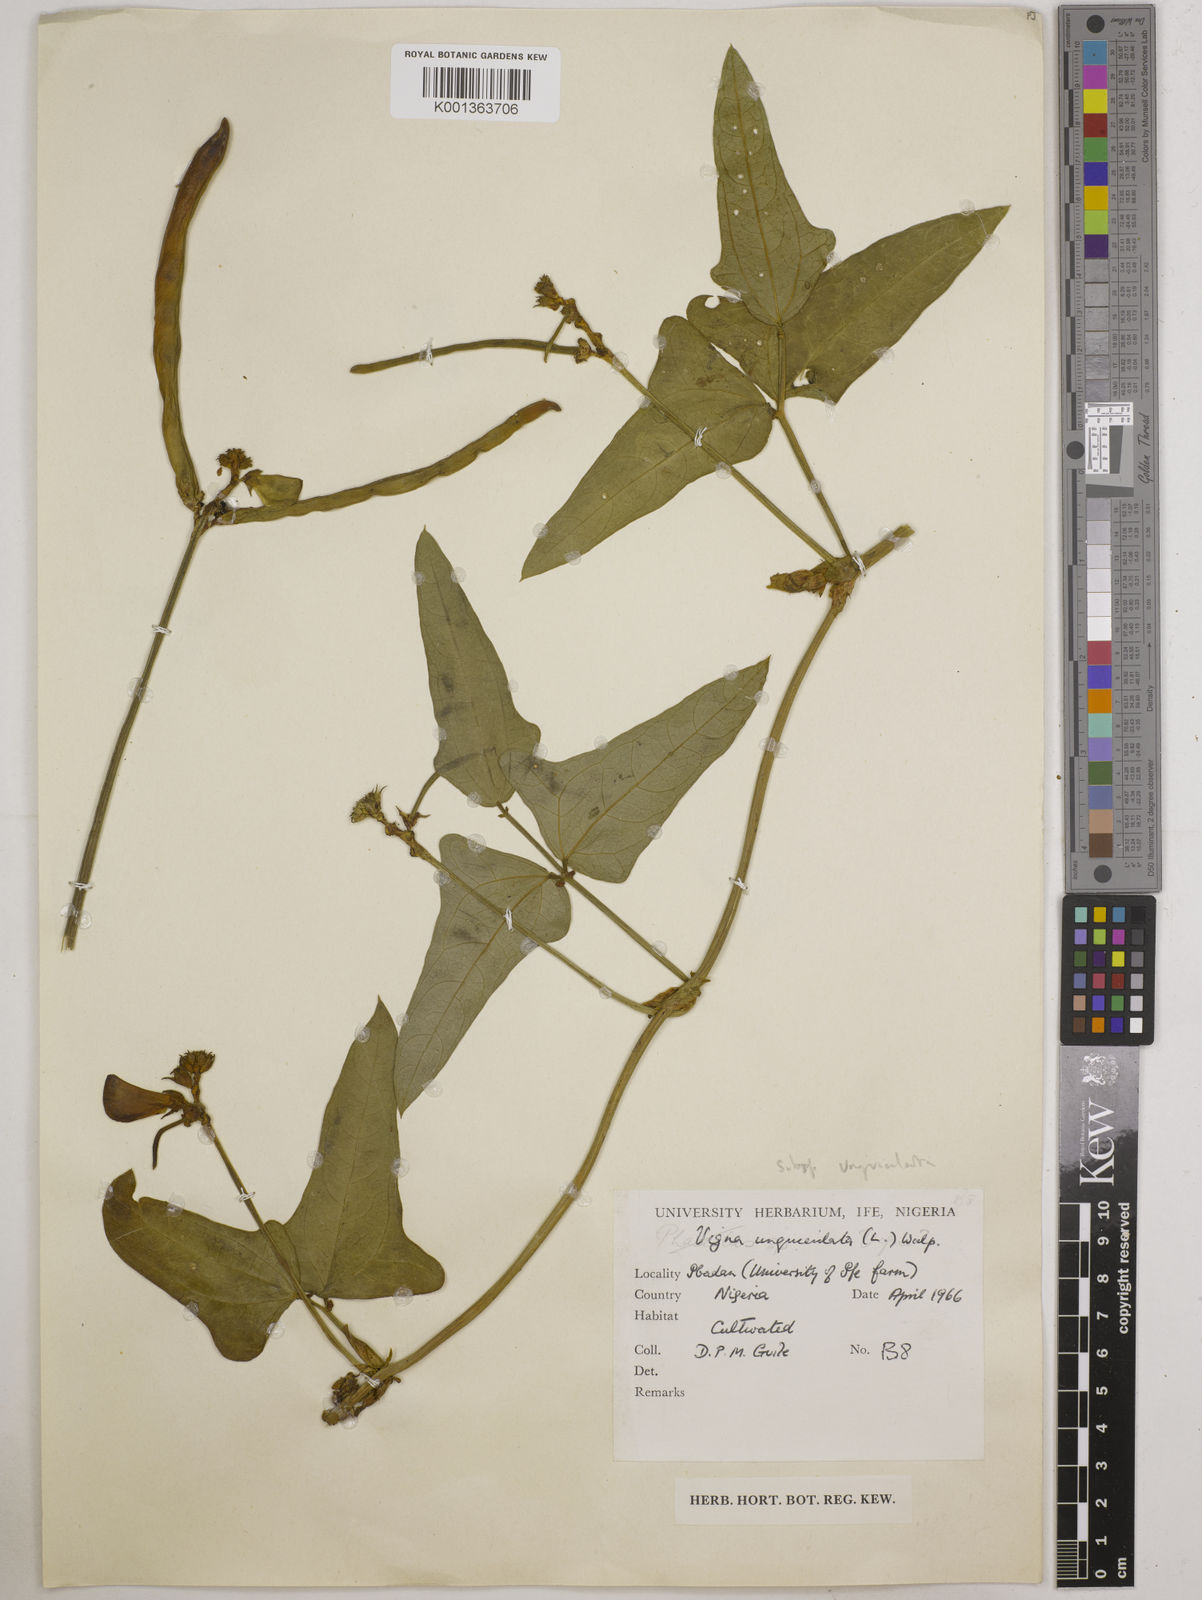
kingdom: Plantae
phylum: Tracheophyta
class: Magnoliopsida
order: Fabales
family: Fabaceae
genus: Vigna
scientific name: Vigna unguiculata
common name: Cowpea
